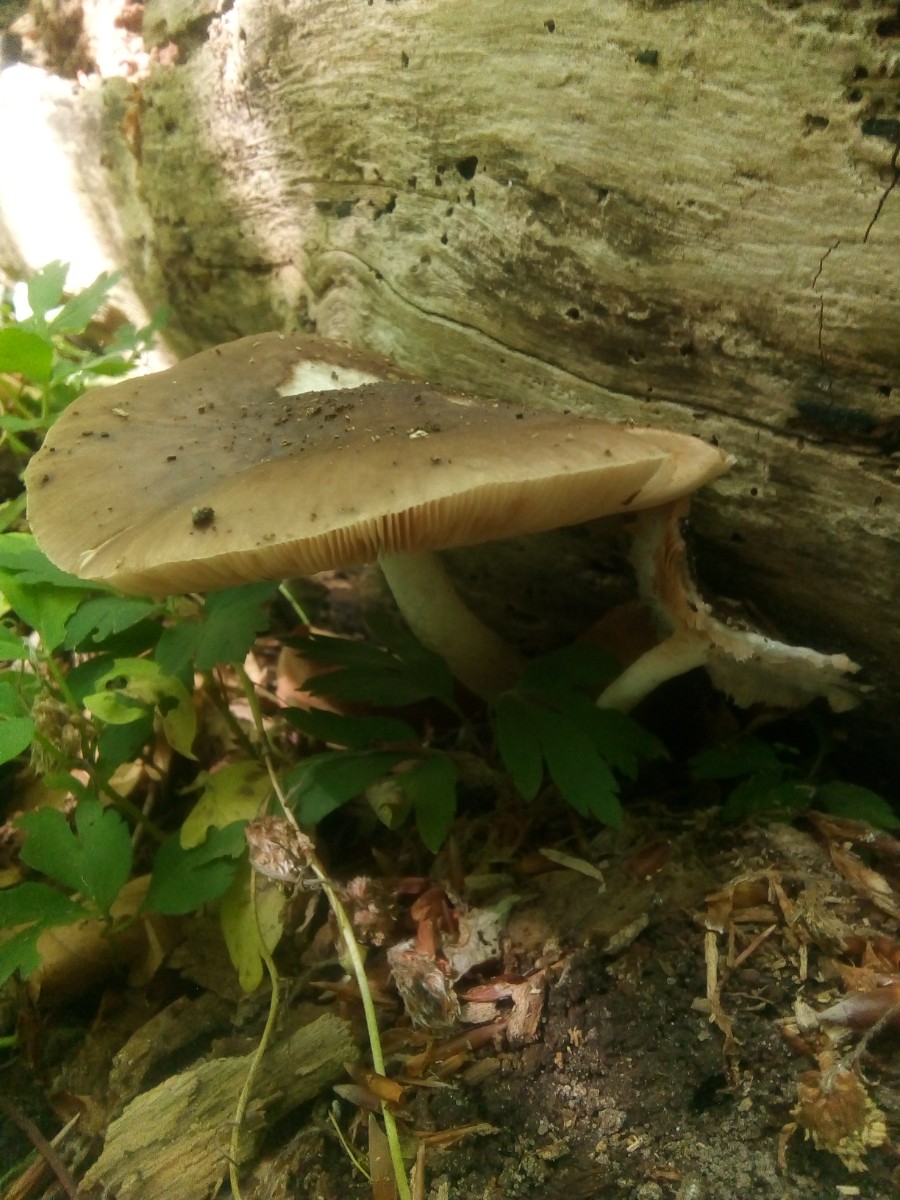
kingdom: Fungi
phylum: Basidiomycota
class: Agaricomycetes
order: Agaricales
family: Pluteaceae
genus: Pluteus
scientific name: Pluteus cervinus
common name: sodfarvet skærmhat
